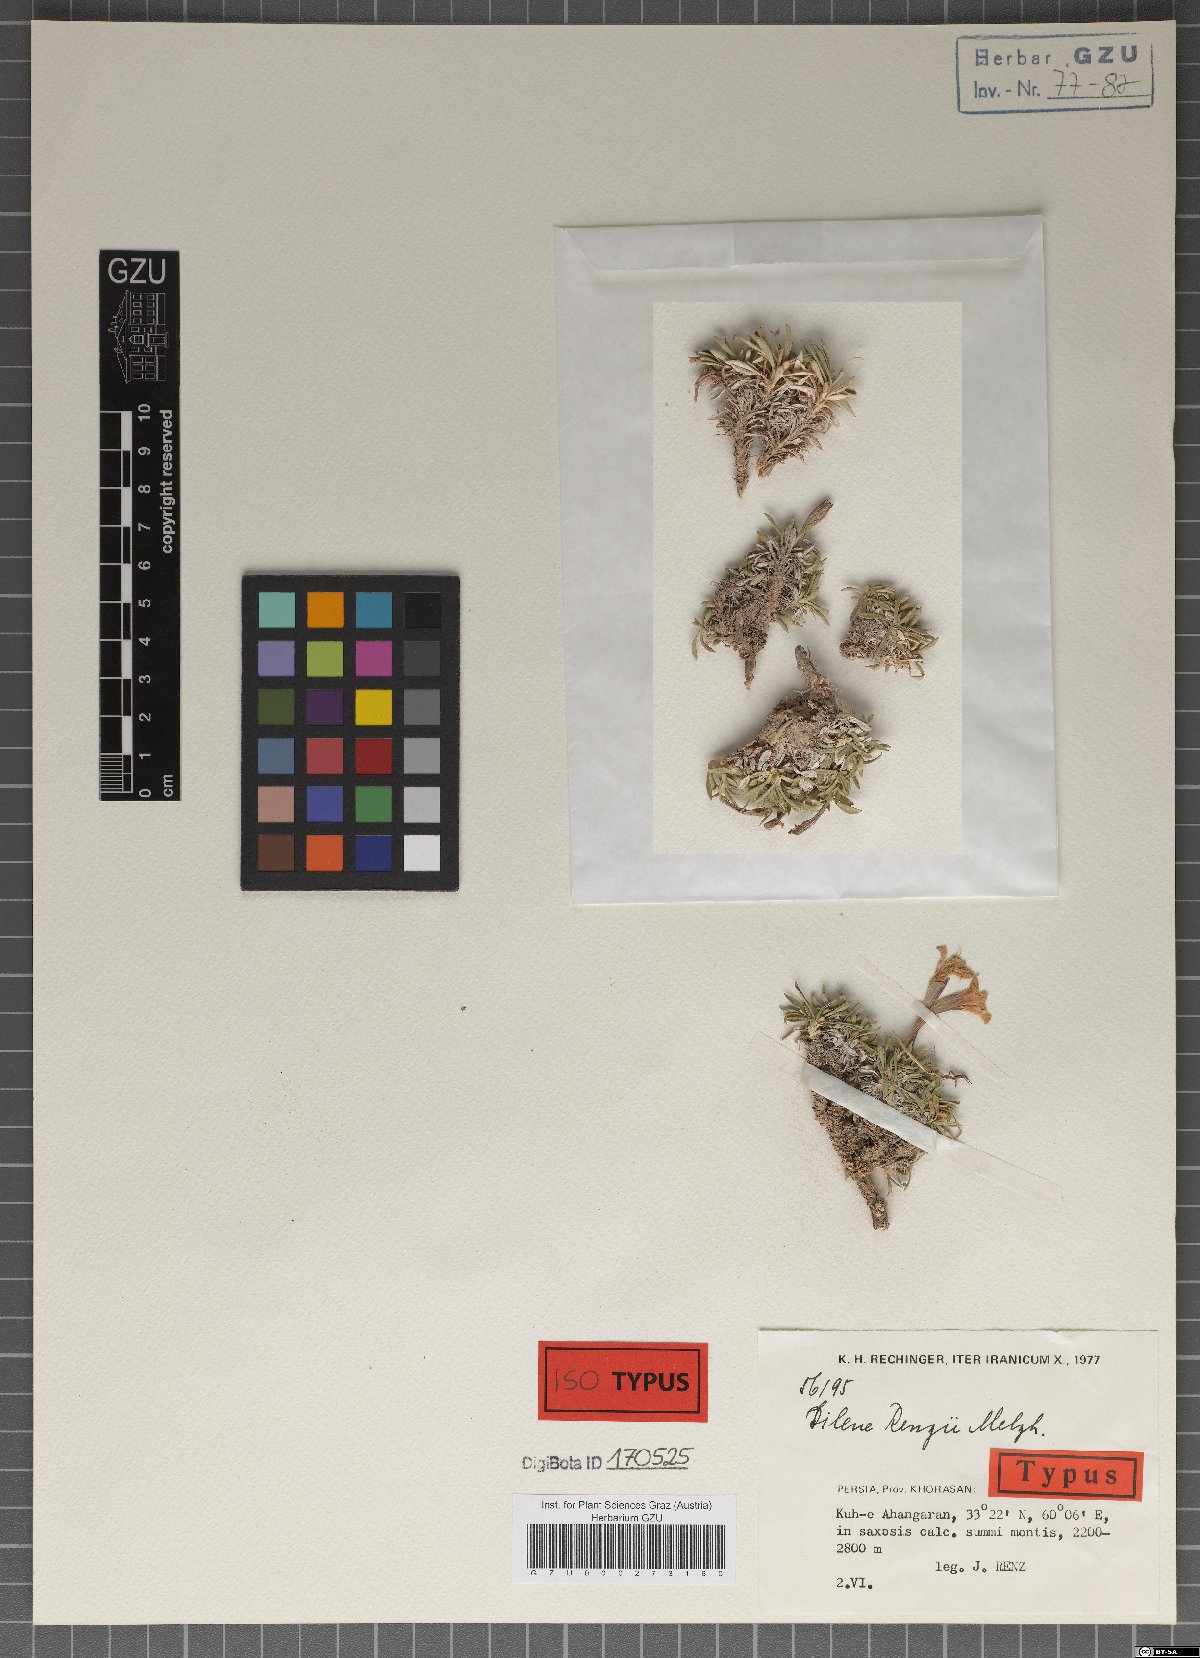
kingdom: Plantae
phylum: Tracheophyta
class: Magnoliopsida
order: Caryophyllales
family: Caryophyllaceae
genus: Silene
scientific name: Silene renzii
